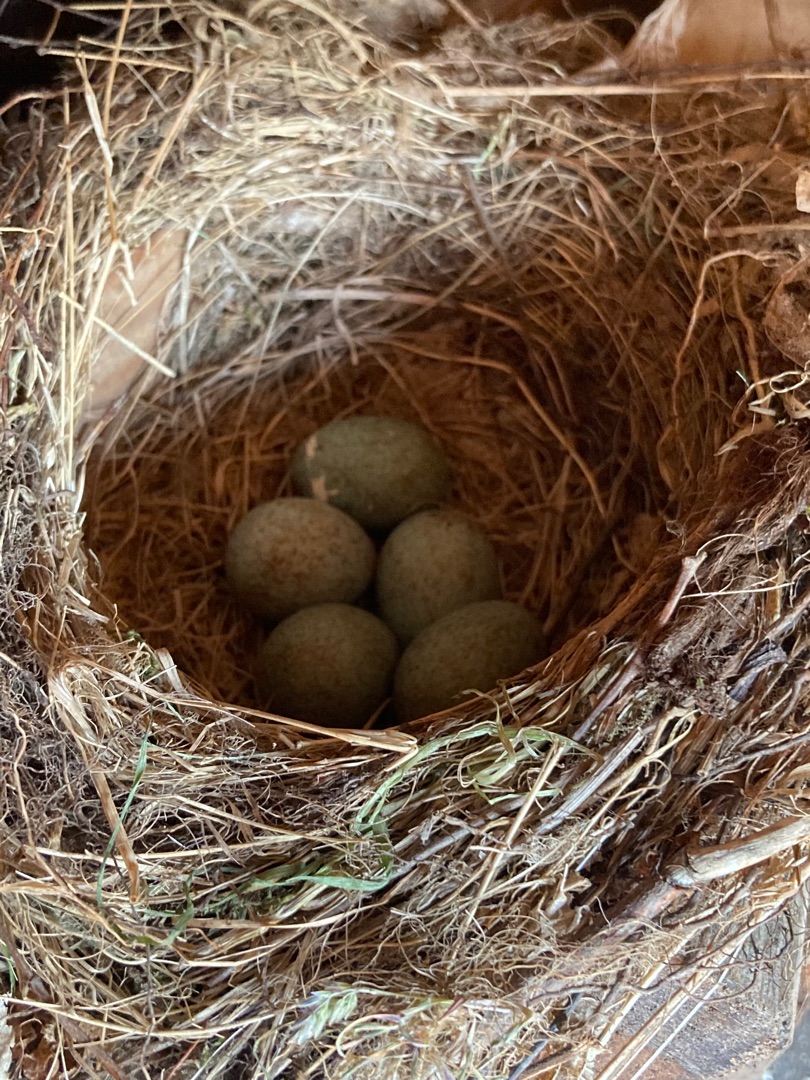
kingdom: Animalia
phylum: Chordata
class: Aves
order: Passeriformes
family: Turdidae
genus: Turdus
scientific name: Turdus merula
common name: Solsort
